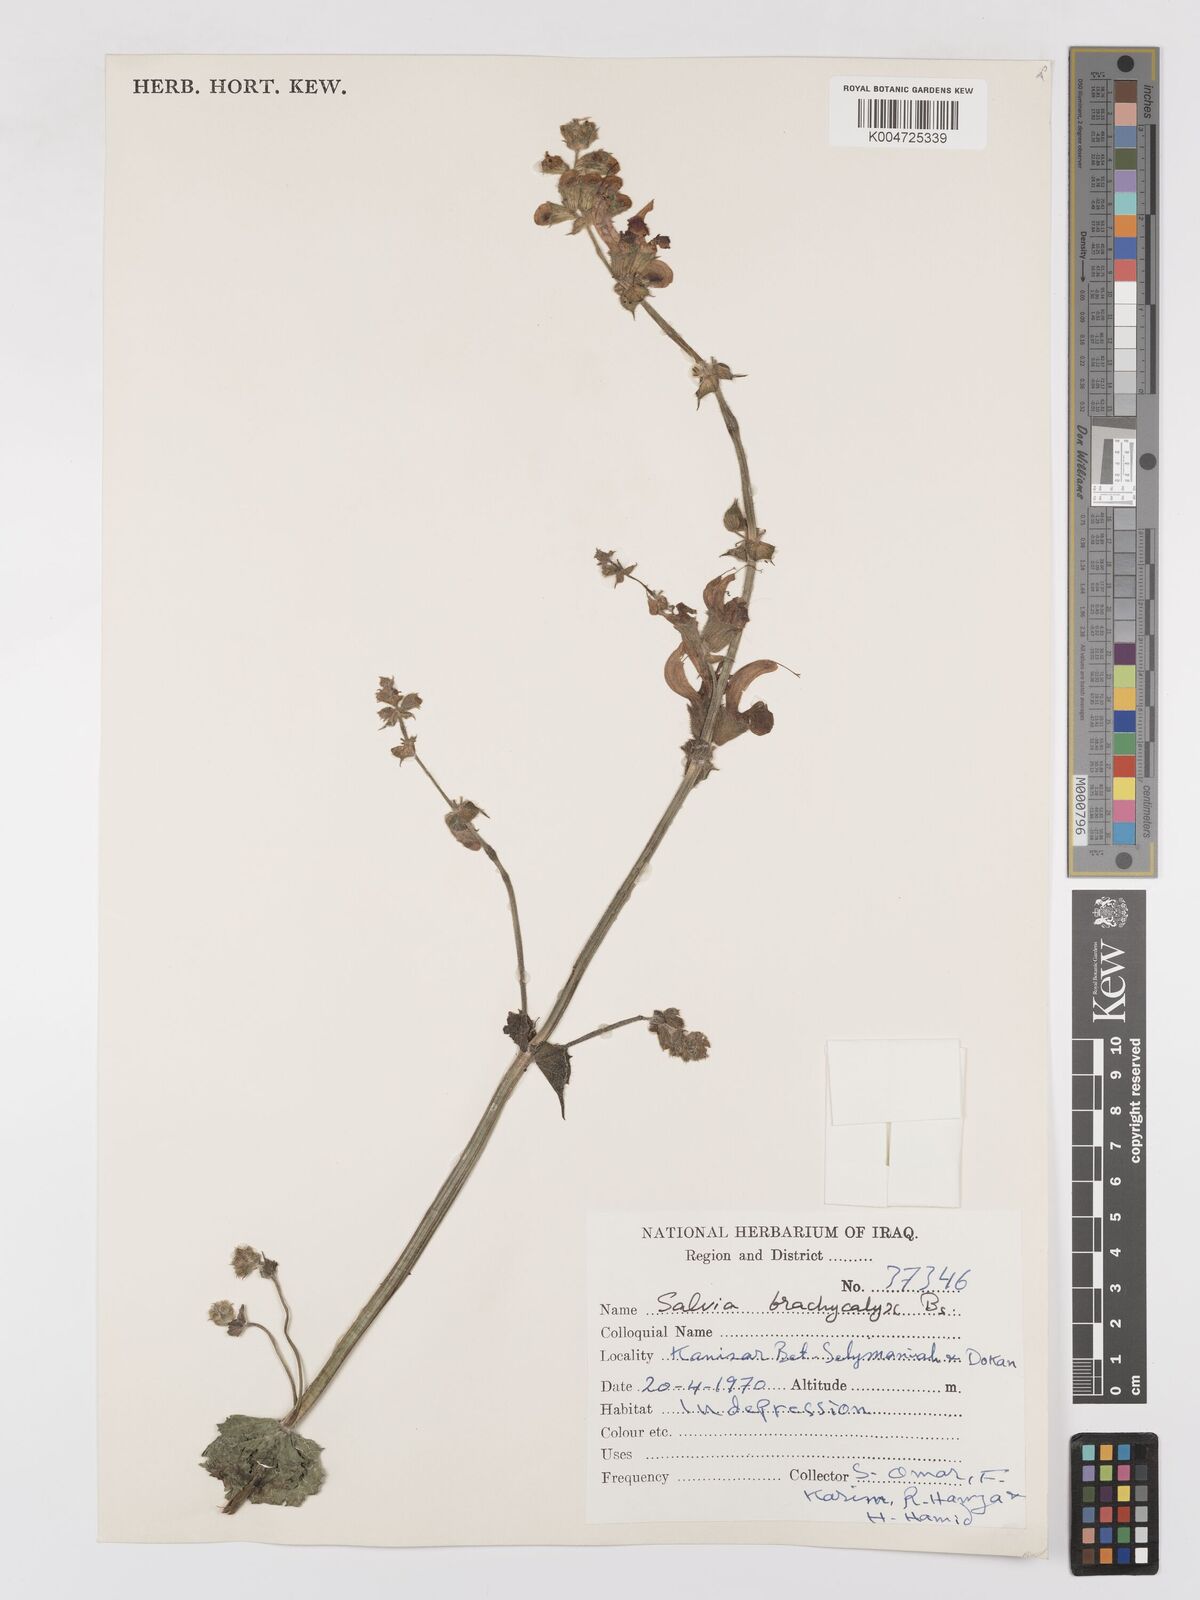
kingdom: Plantae
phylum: Tracheophyta
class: Magnoliopsida
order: Lamiales
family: Lamiaceae
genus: Salvia
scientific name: Salvia indica
